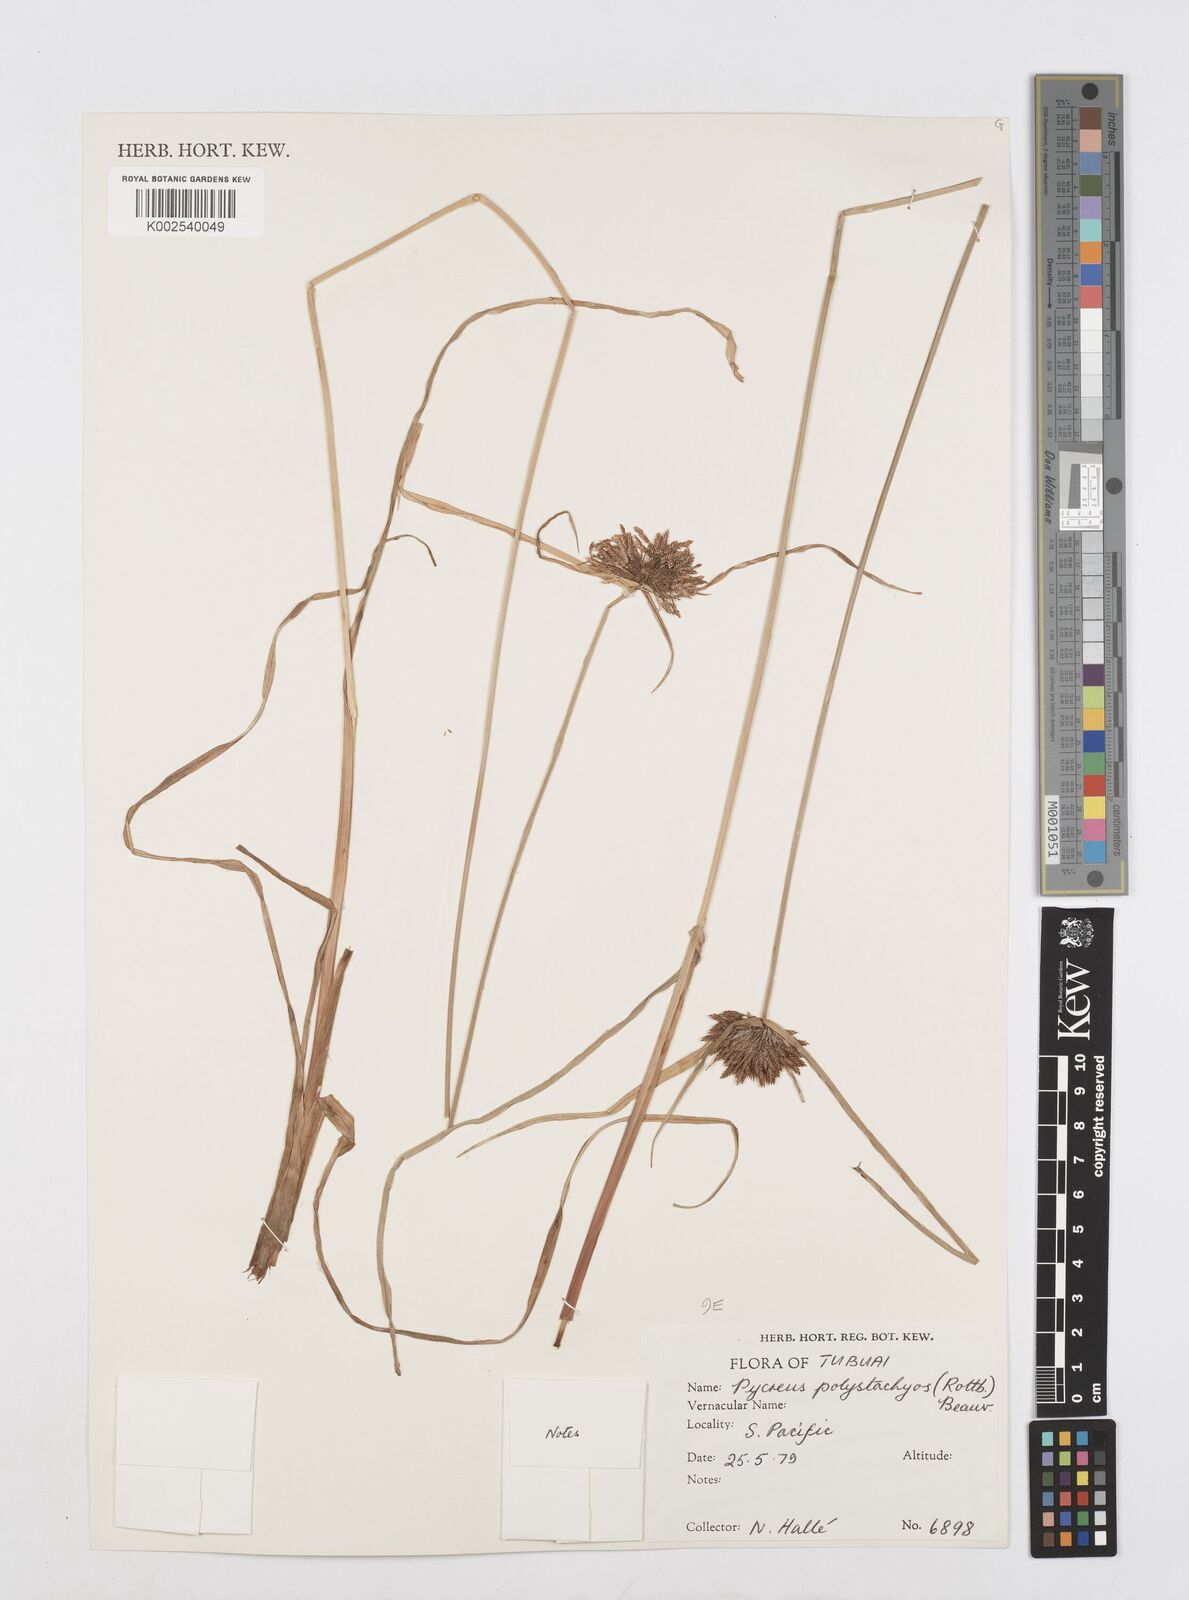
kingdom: Plantae
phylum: Tracheophyta
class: Liliopsida
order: Poales
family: Cyperaceae
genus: Cyperus
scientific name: Cyperus polystachyos
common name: Bunchy flat sedge
